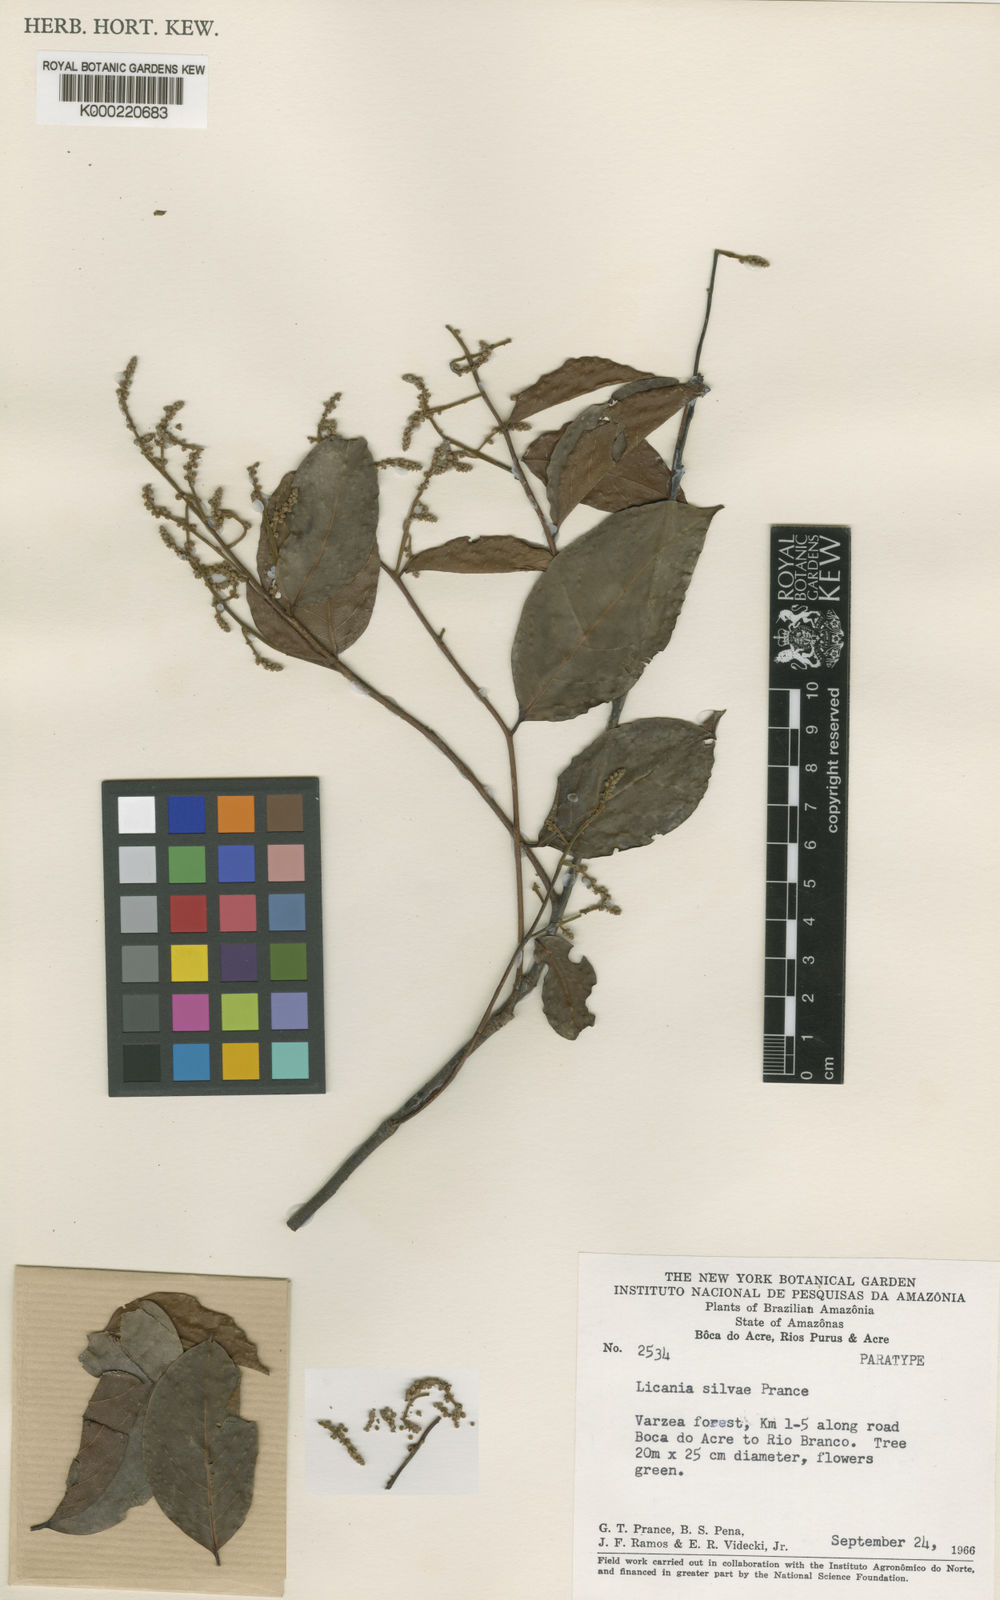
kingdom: Plantae
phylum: Tracheophyta
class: Magnoliopsida
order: Malpighiales
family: Chrysobalanaceae
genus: Licania
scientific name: Licania silvae
